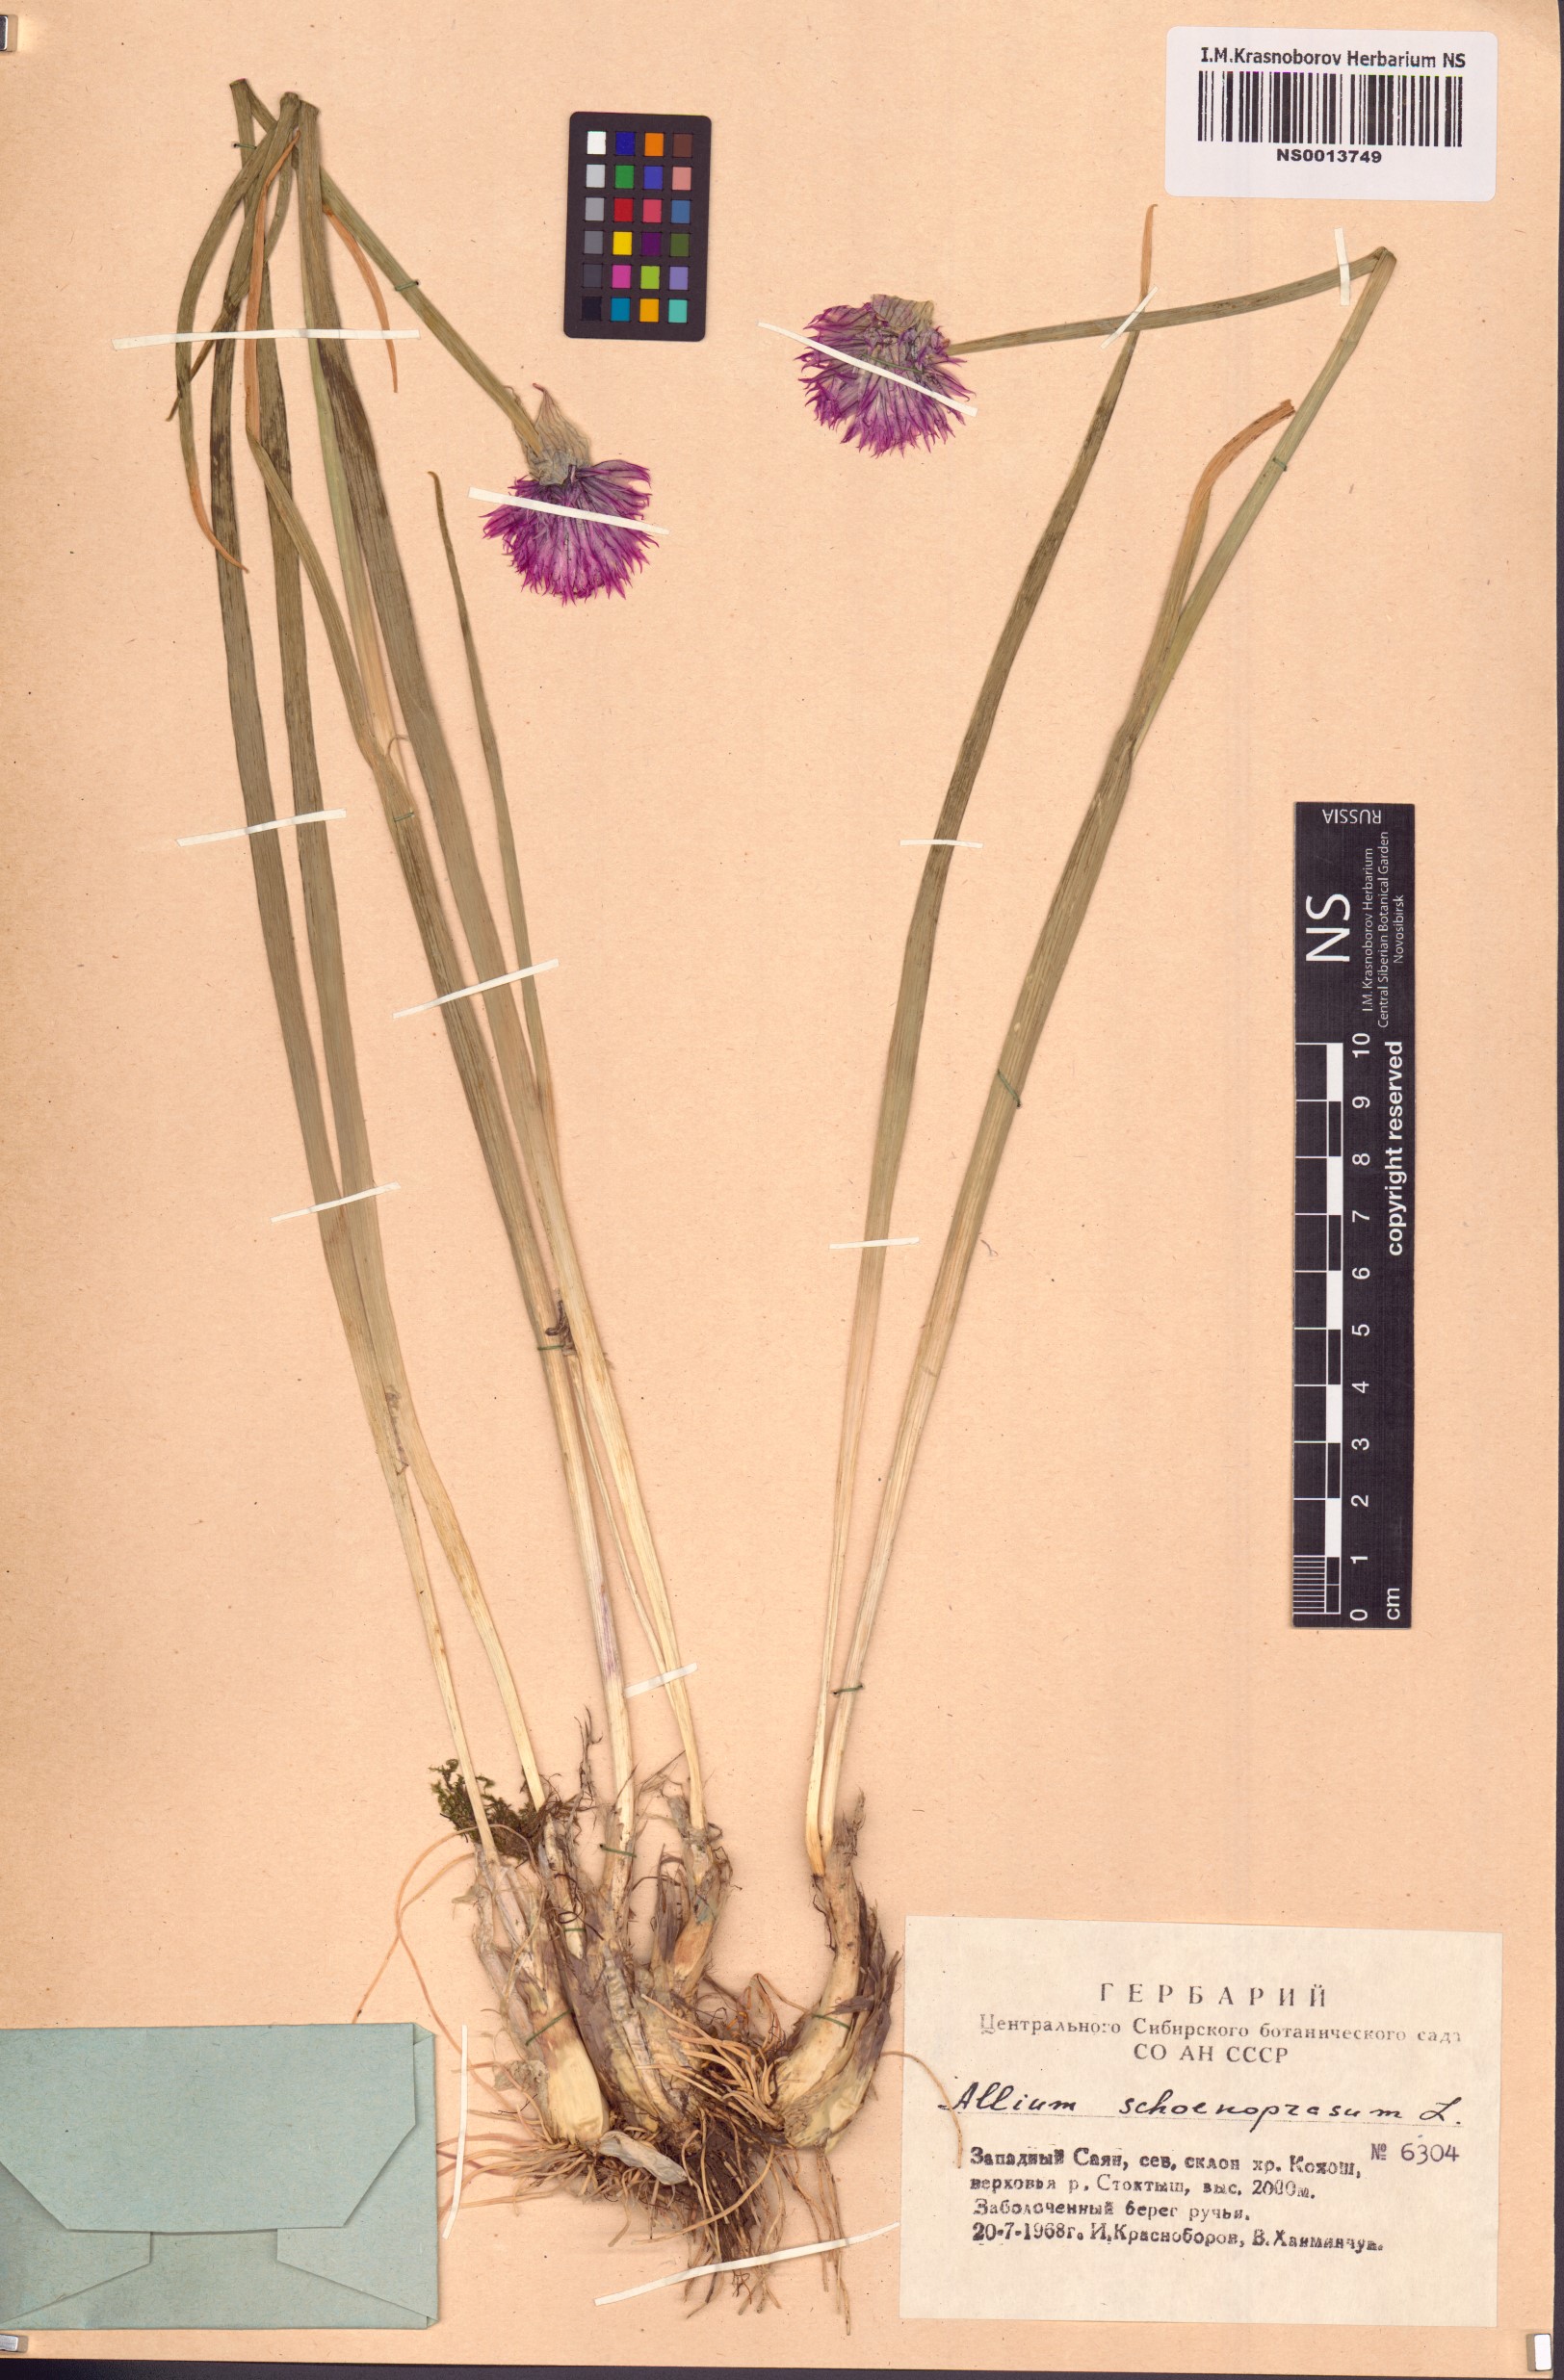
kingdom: Plantae
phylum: Tracheophyta
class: Liliopsida
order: Asparagales
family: Amaryllidaceae
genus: Allium
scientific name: Allium schoenoprasum
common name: Chives
